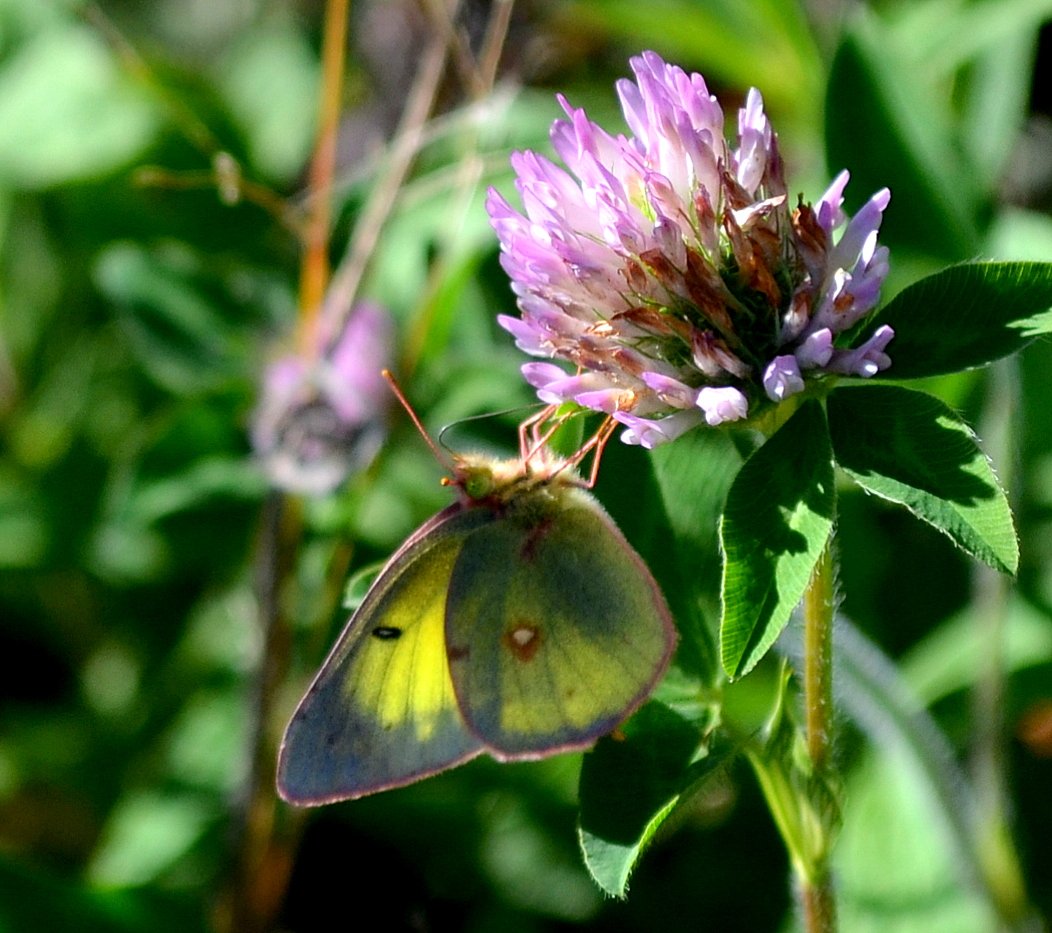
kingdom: Animalia
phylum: Arthropoda
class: Insecta
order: Lepidoptera
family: Pieridae
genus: Colias
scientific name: Colias philodice
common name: Clouded Sulphur
